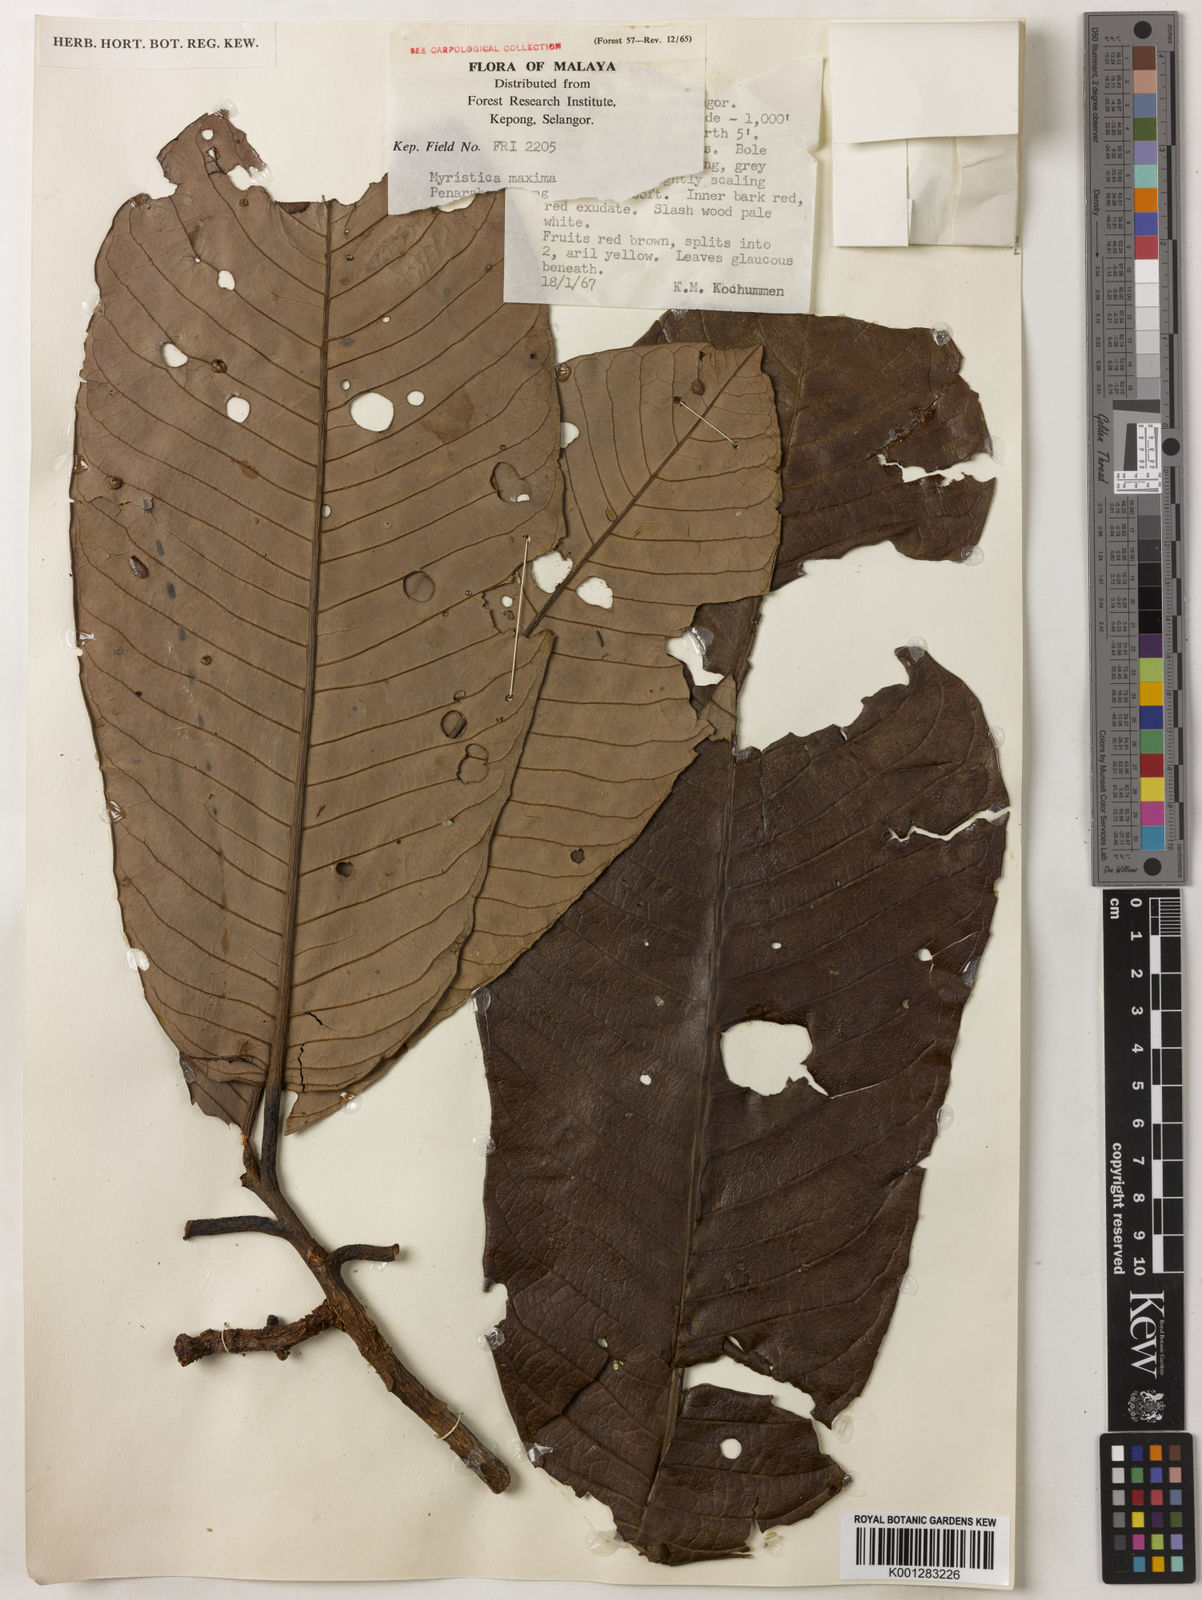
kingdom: Plantae
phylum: Tracheophyta
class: Magnoliopsida
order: Magnoliales
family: Myristicaceae
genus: Myristica
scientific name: Myristica maxima
